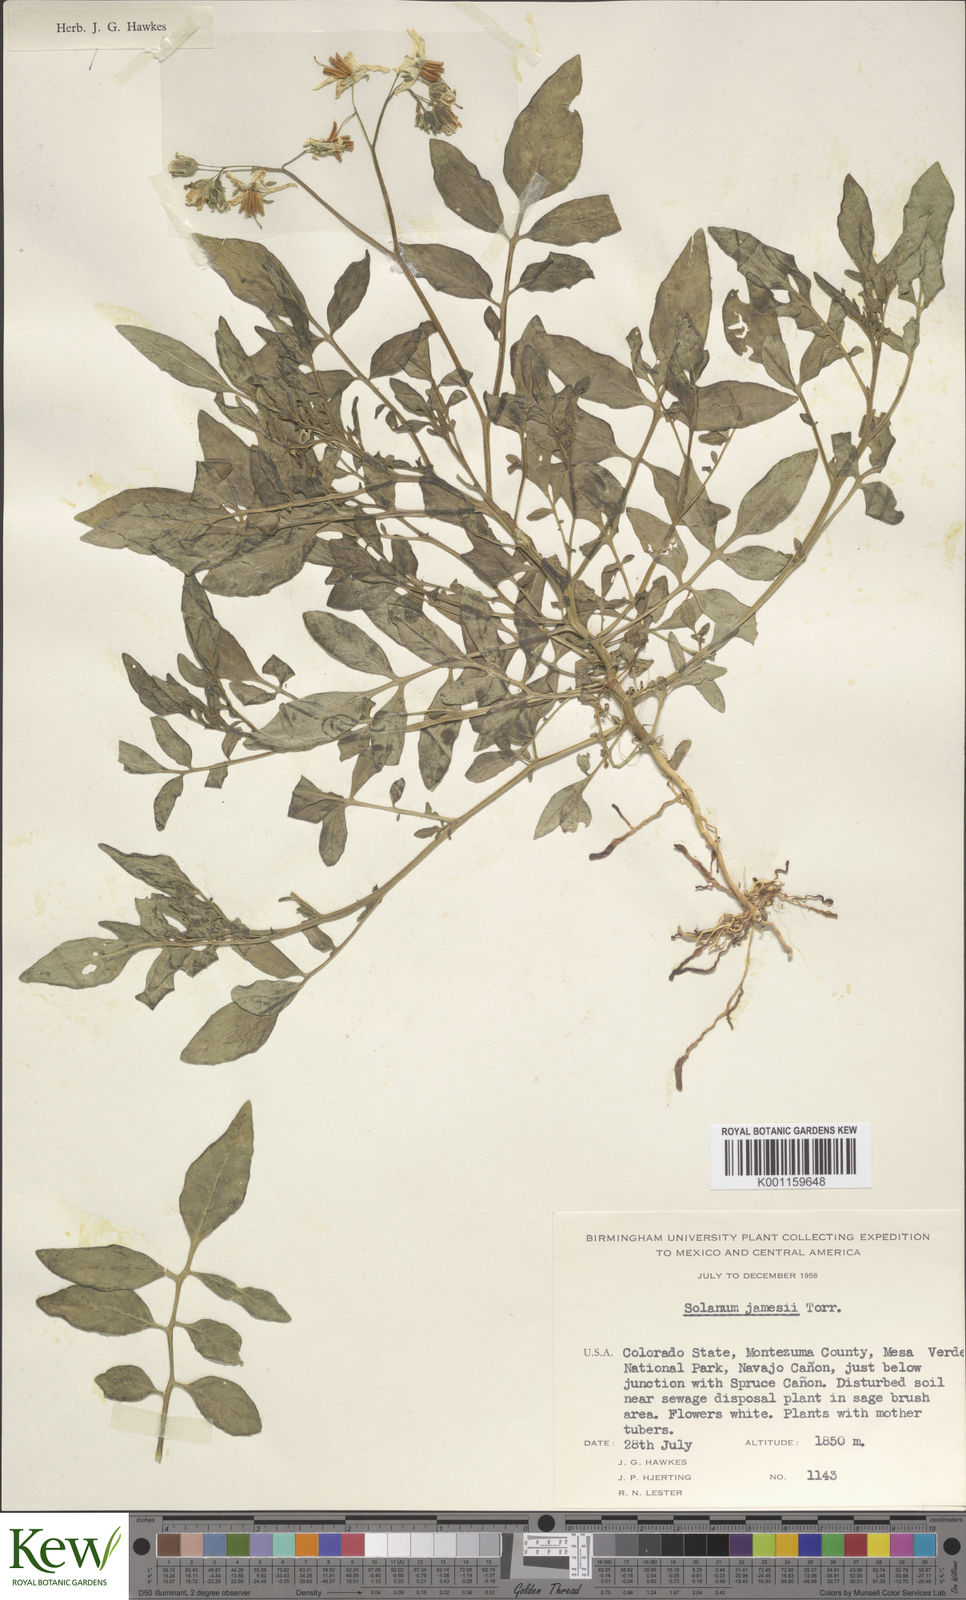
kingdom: Plantae
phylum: Tracheophyta
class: Magnoliopsida
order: Solanales
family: Solanaceae
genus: Solanum
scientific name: Solanum jamesii
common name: Wild potato
